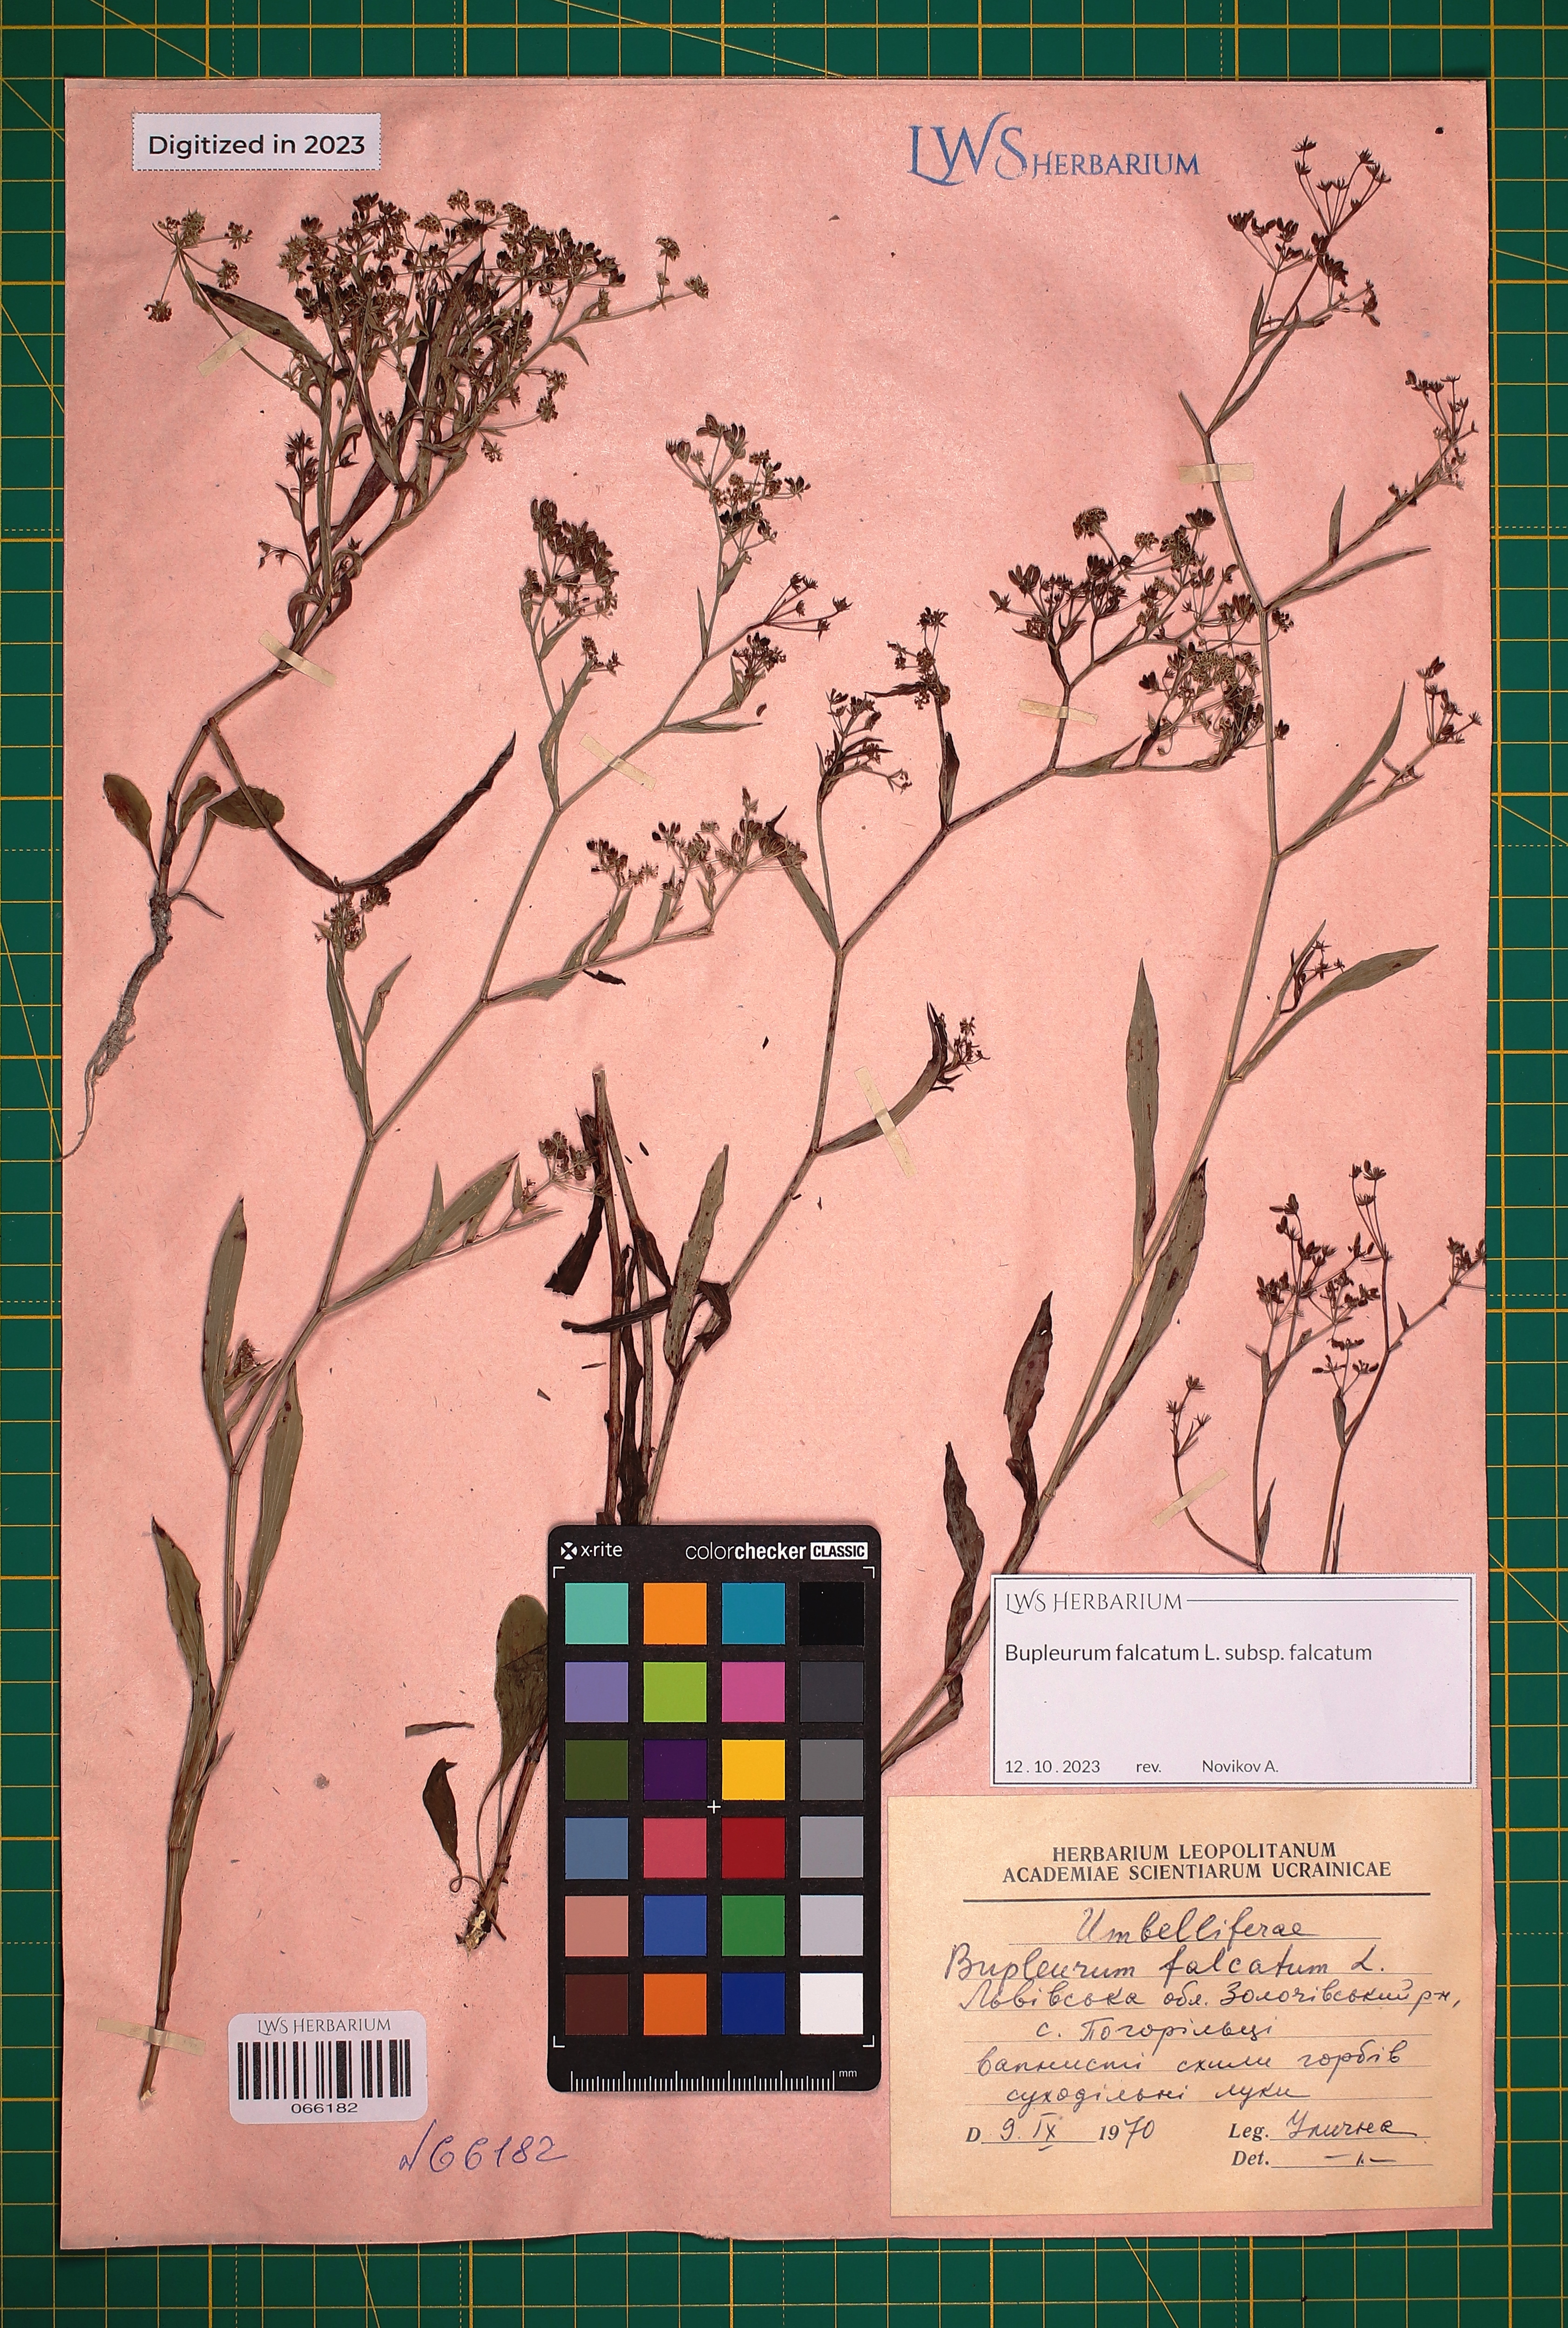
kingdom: Plantae
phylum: Tracheophyta
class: Magnoliopsida
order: Apiales
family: Apiaceae
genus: Bupleurum
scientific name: Bupleurum falcatum
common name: Sickle-leaved hare's-ear
